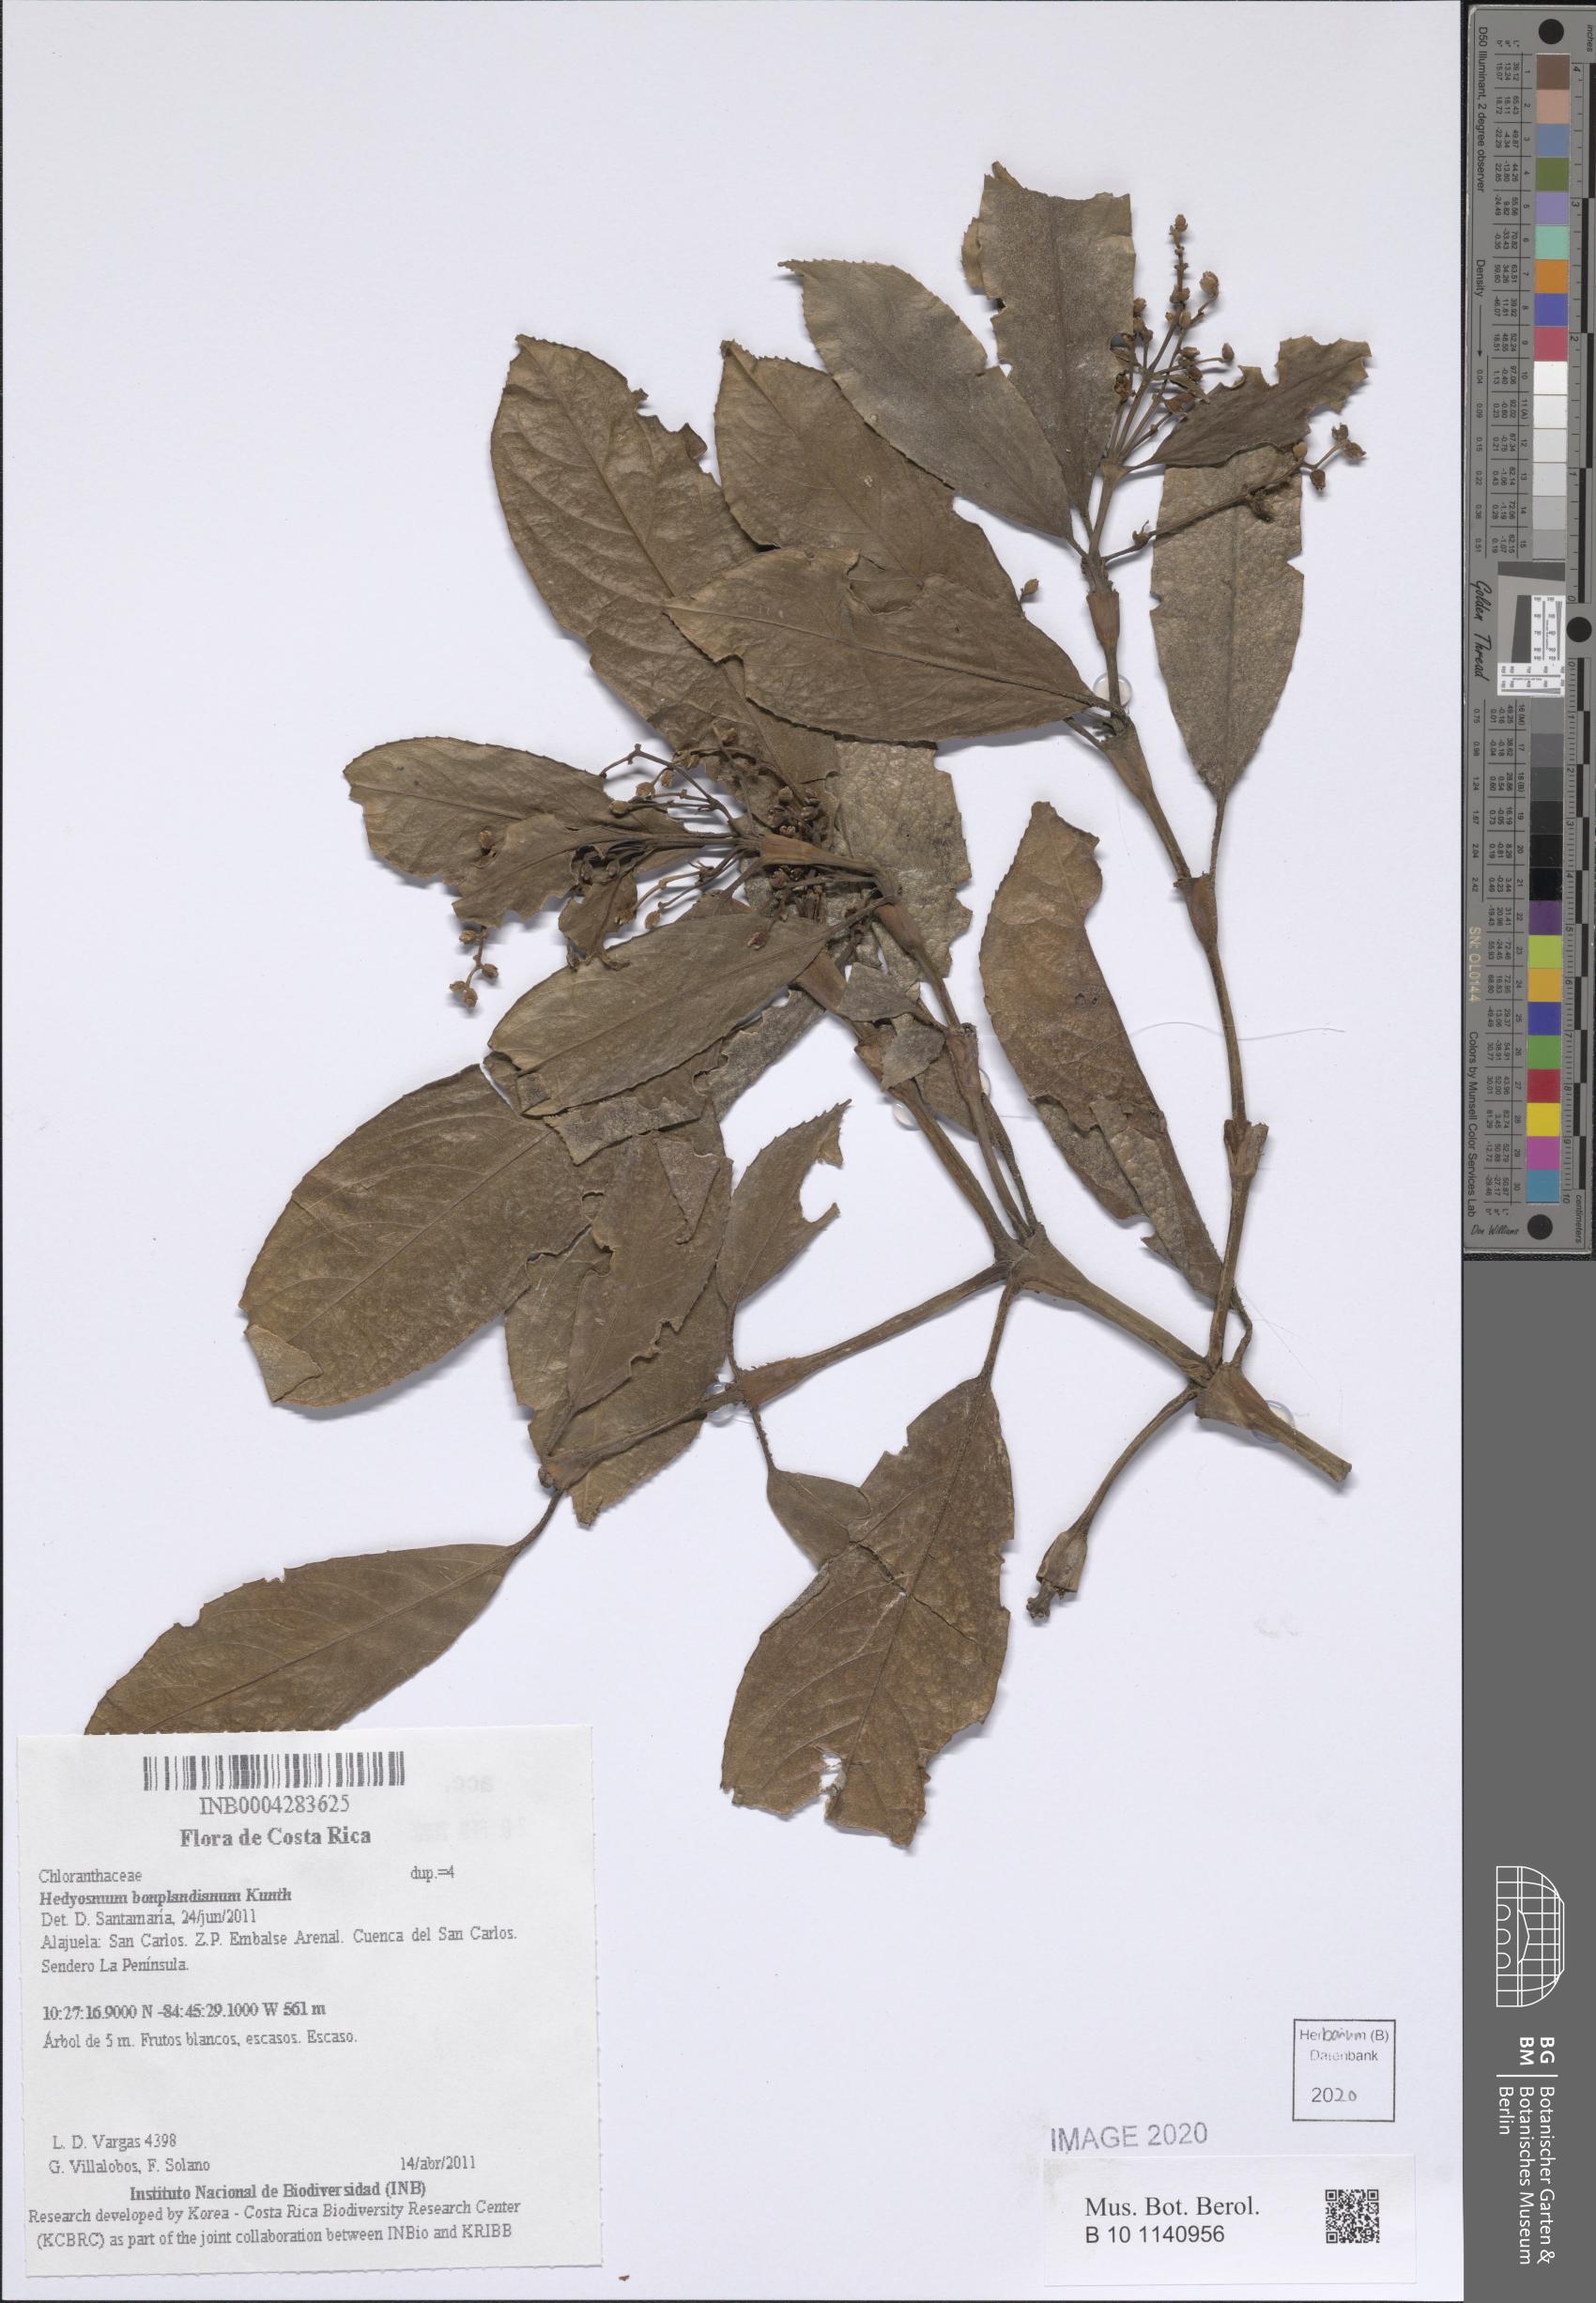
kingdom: Plantae
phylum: Tracheophyta
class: Magnoliopsida
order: Chloranthales
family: Chloranthaceae
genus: Hedyosmum
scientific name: Hedyosmum bonplandianum
